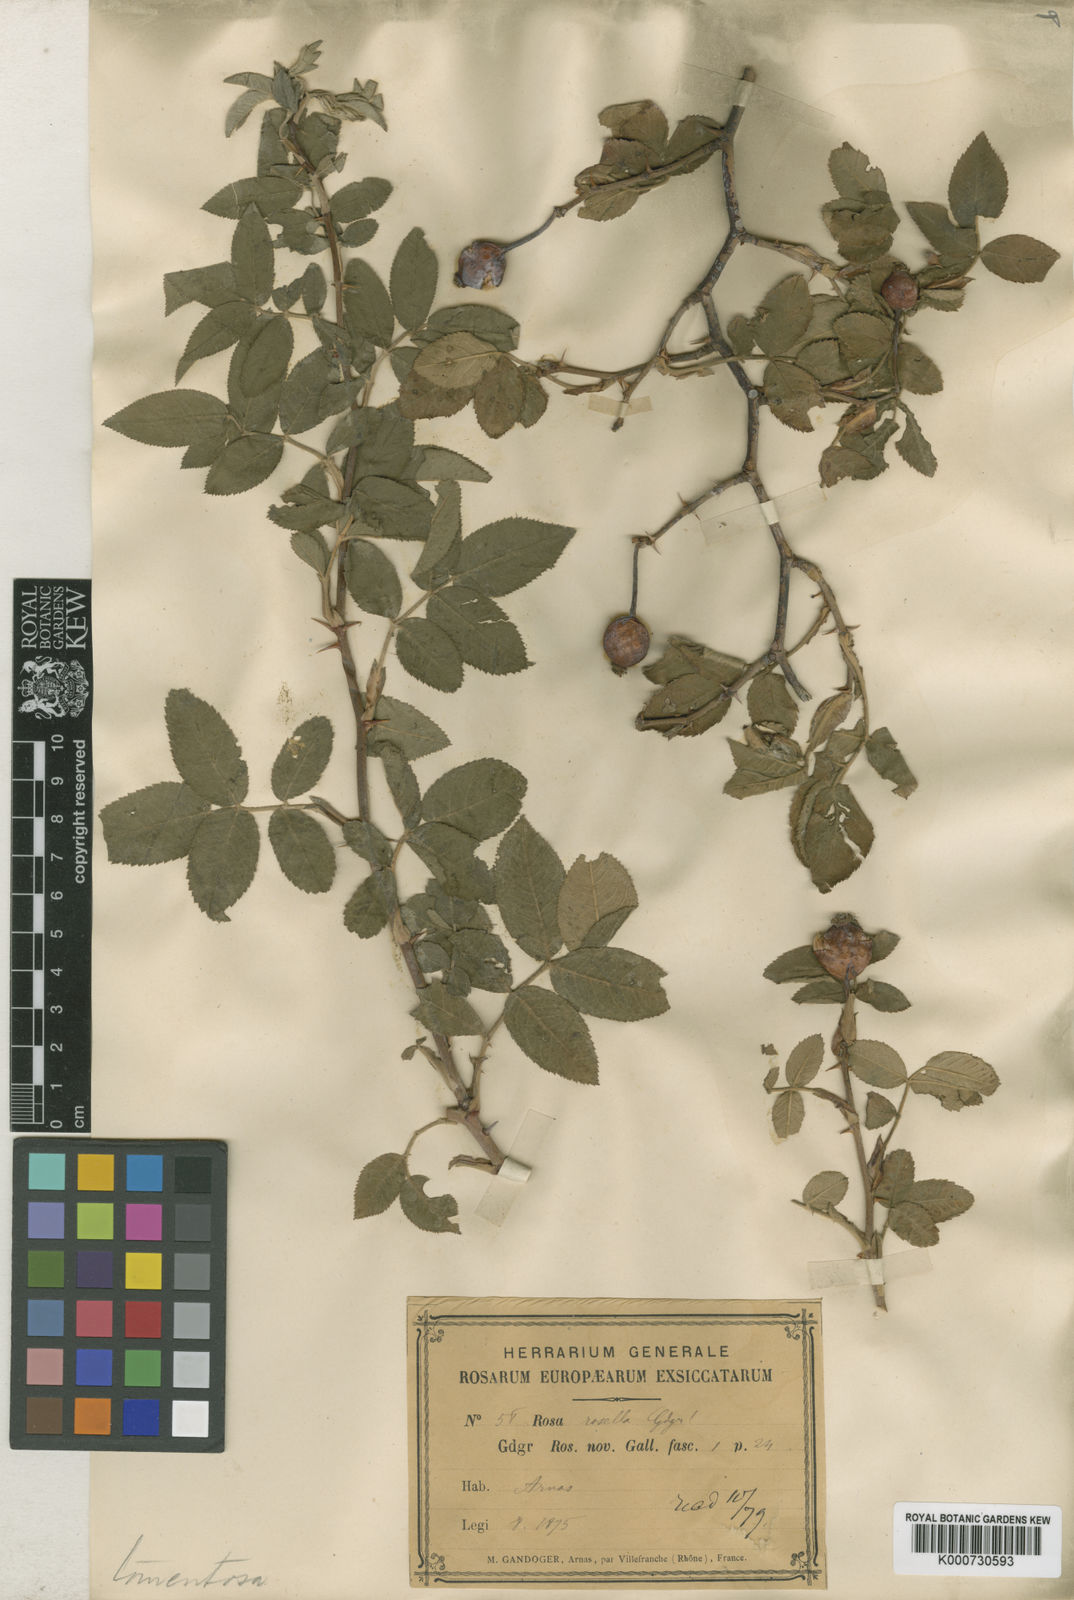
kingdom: Plantae
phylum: Tracheophyta
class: Magnoliopsida
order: Rosales
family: Rosaceae
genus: Rosa
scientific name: Rosa tomentosa
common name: Downy rose
